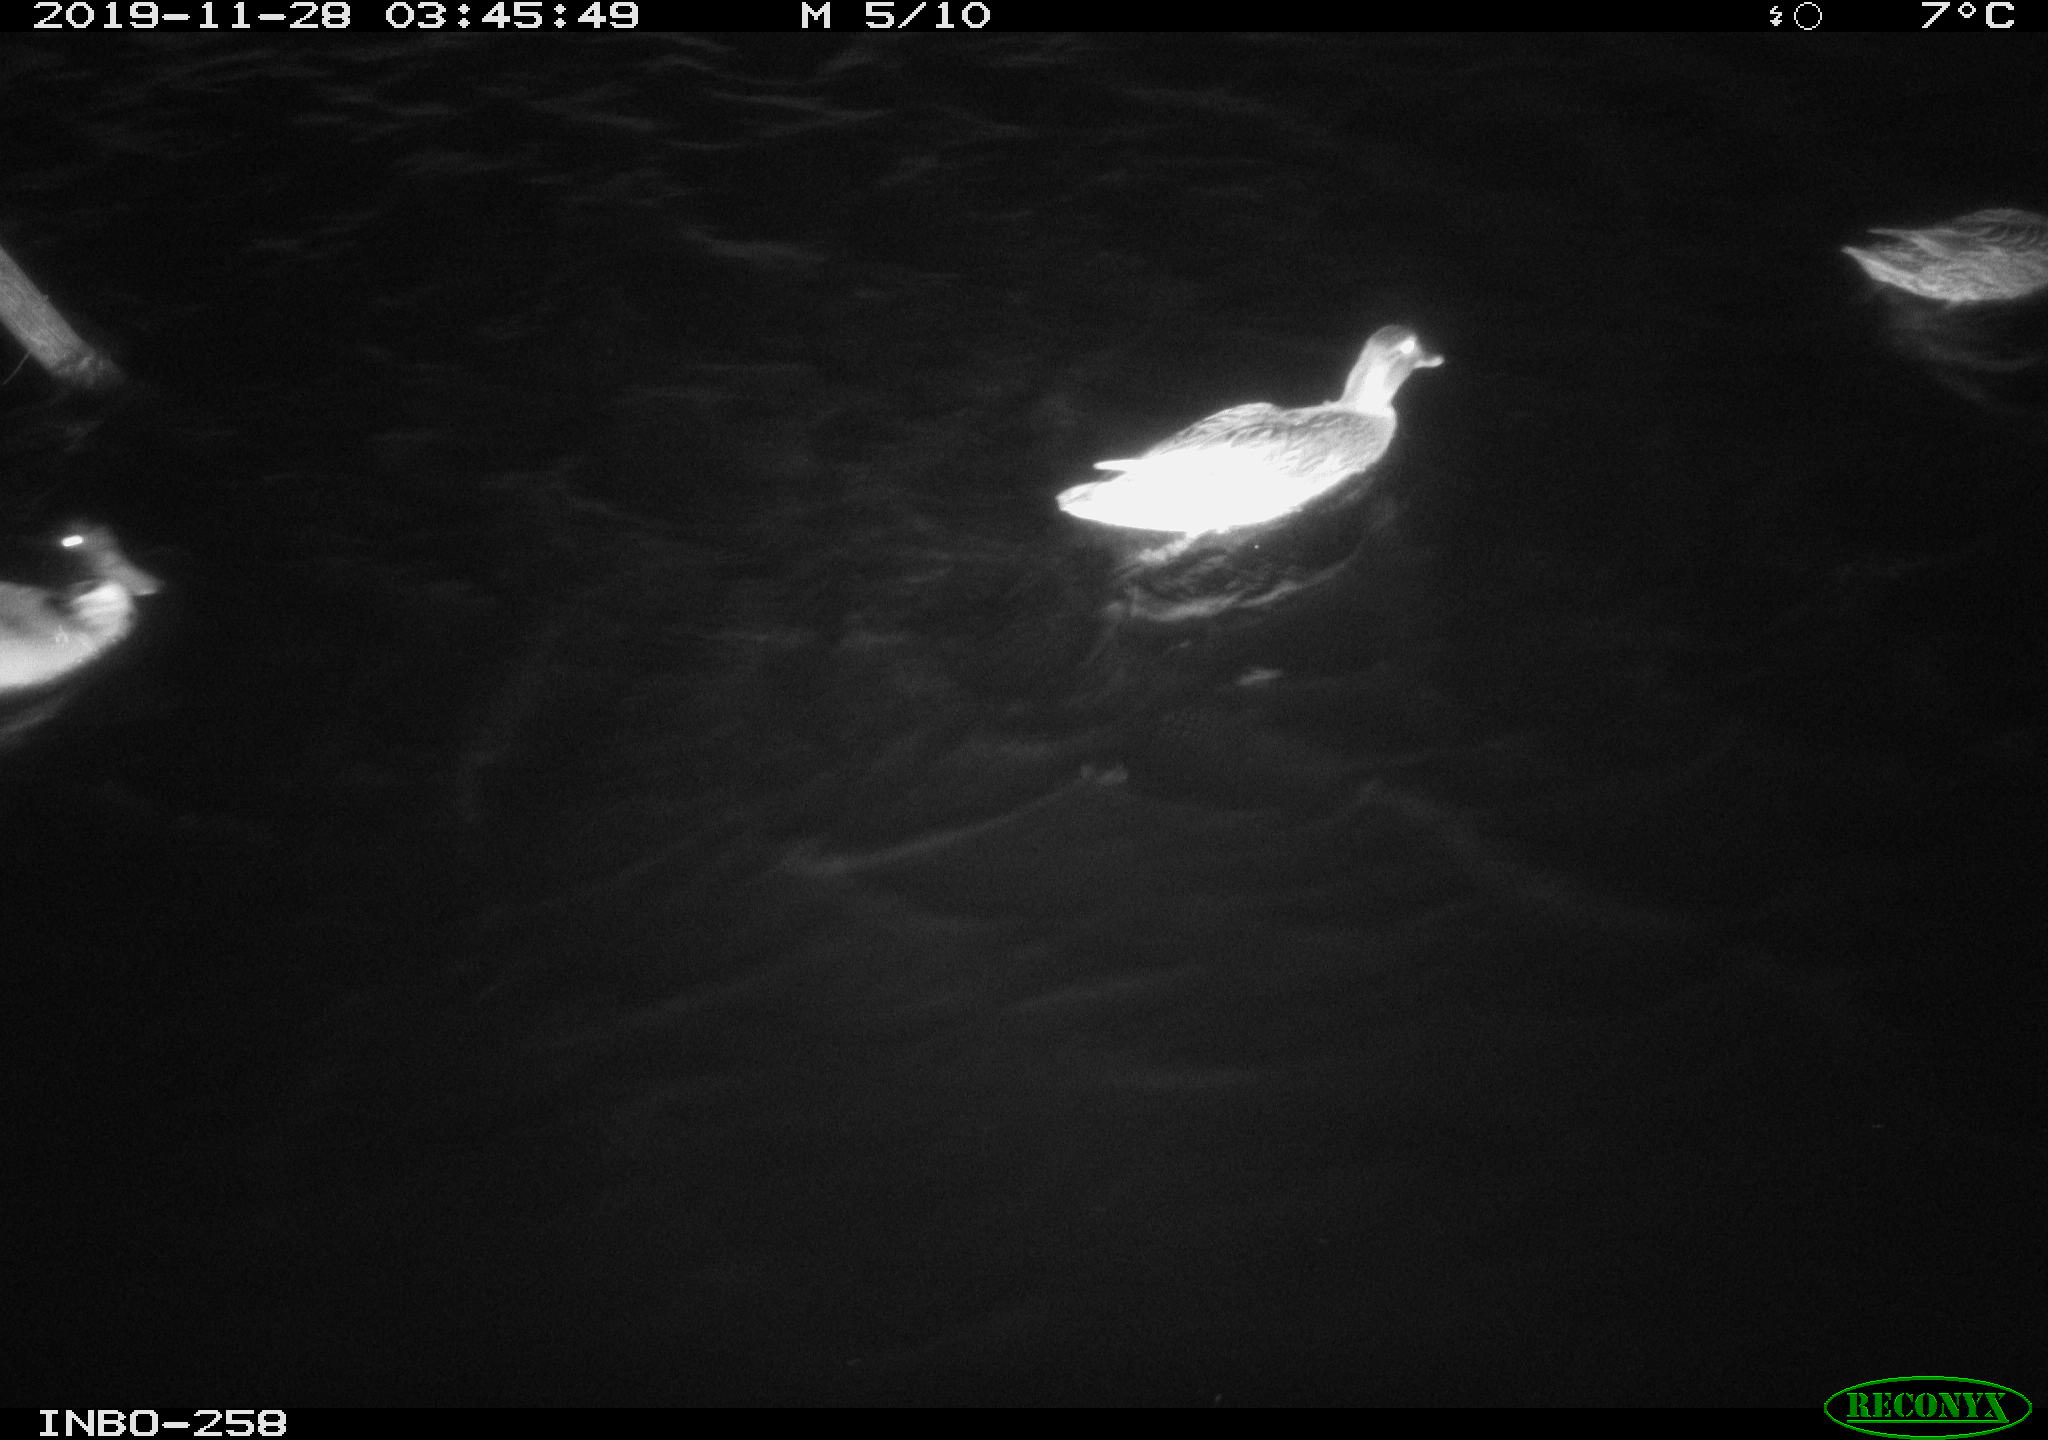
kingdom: Animalia
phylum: Chordata
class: Aves
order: Anseriformes
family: Anatidae
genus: Anas
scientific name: Anas platyrhynchos
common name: Mallard
